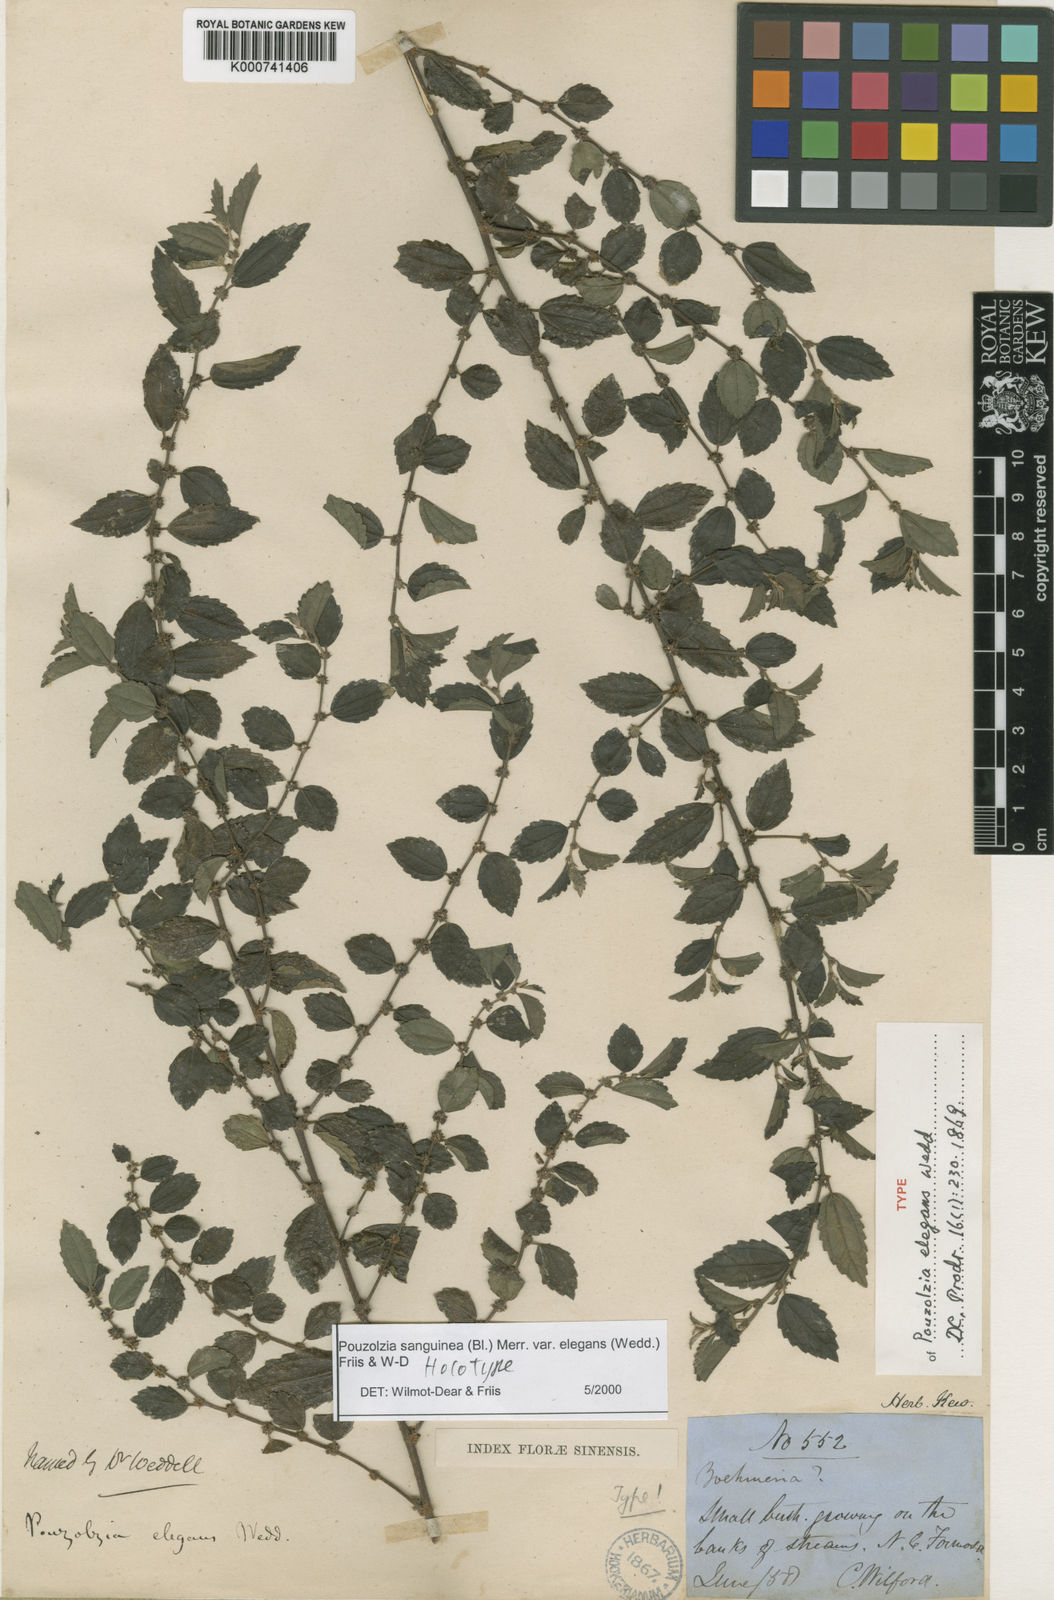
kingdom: Plantae
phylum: Tracheophyta
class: Magnoliopsida
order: Rosales
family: Urticaceae
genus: Pouzolzia
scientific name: Pouzolzia sanguinea
